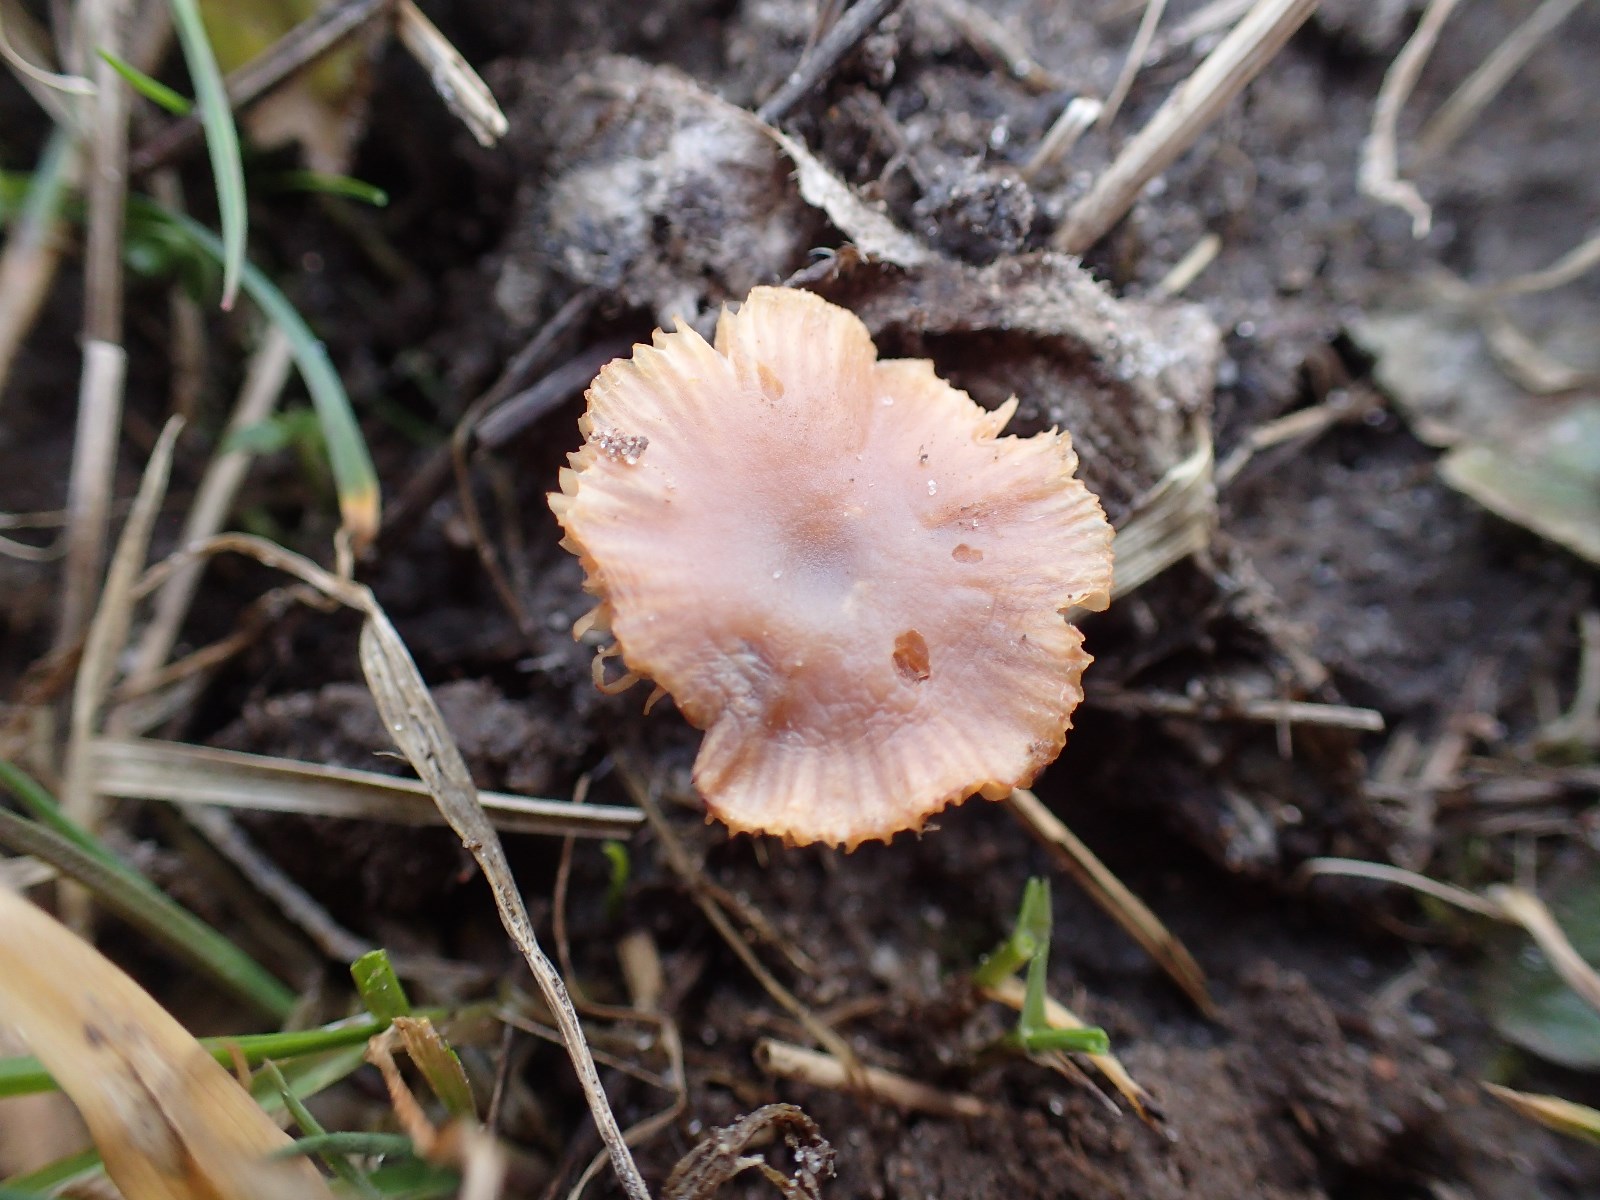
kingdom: Fungi
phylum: Basidiomycota
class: Agaricomycetes
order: Agaricales
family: Tubariaceae
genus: Tubaria
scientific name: Tubaria furfuracea
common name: kliddet fnughat
